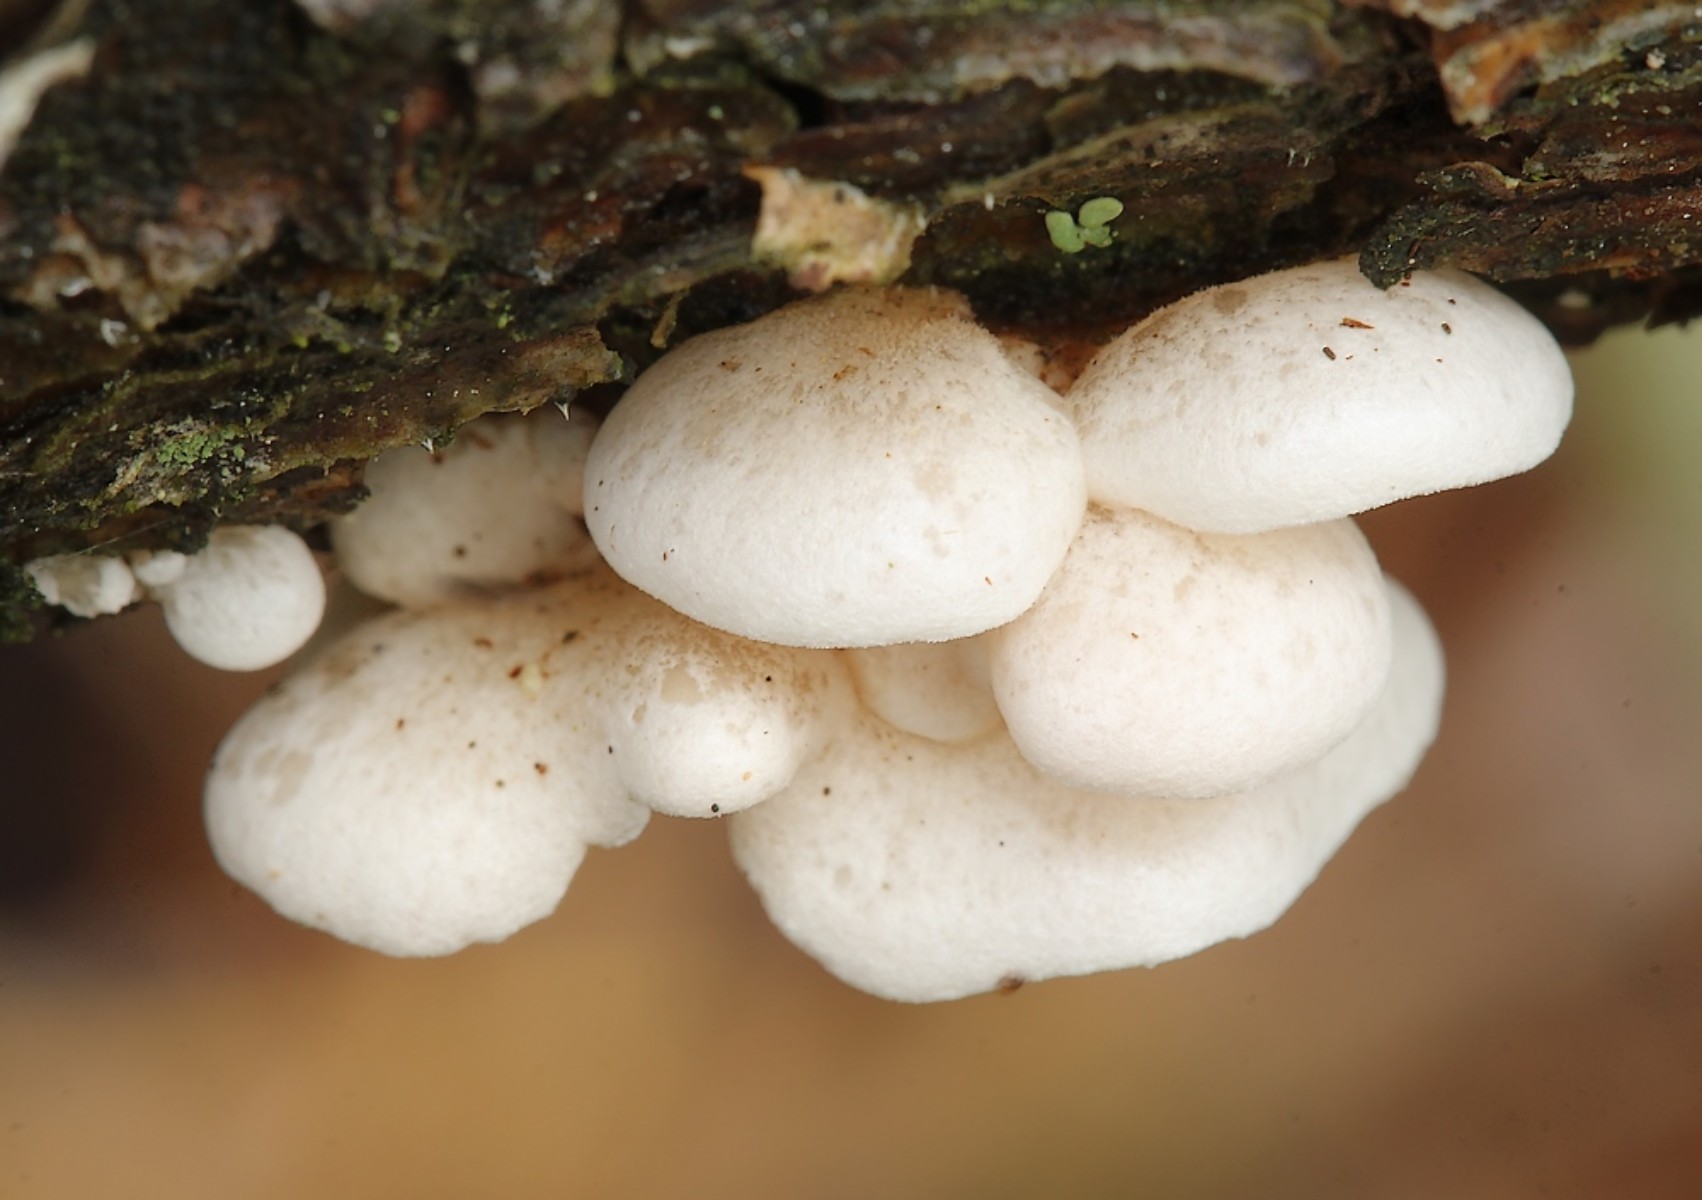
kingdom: Fungi
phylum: Basidiomycota
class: Agaricomycetes
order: Agaricales
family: Mycenaceae
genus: Panellus
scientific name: Panellus mitis
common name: mild epaulethat
